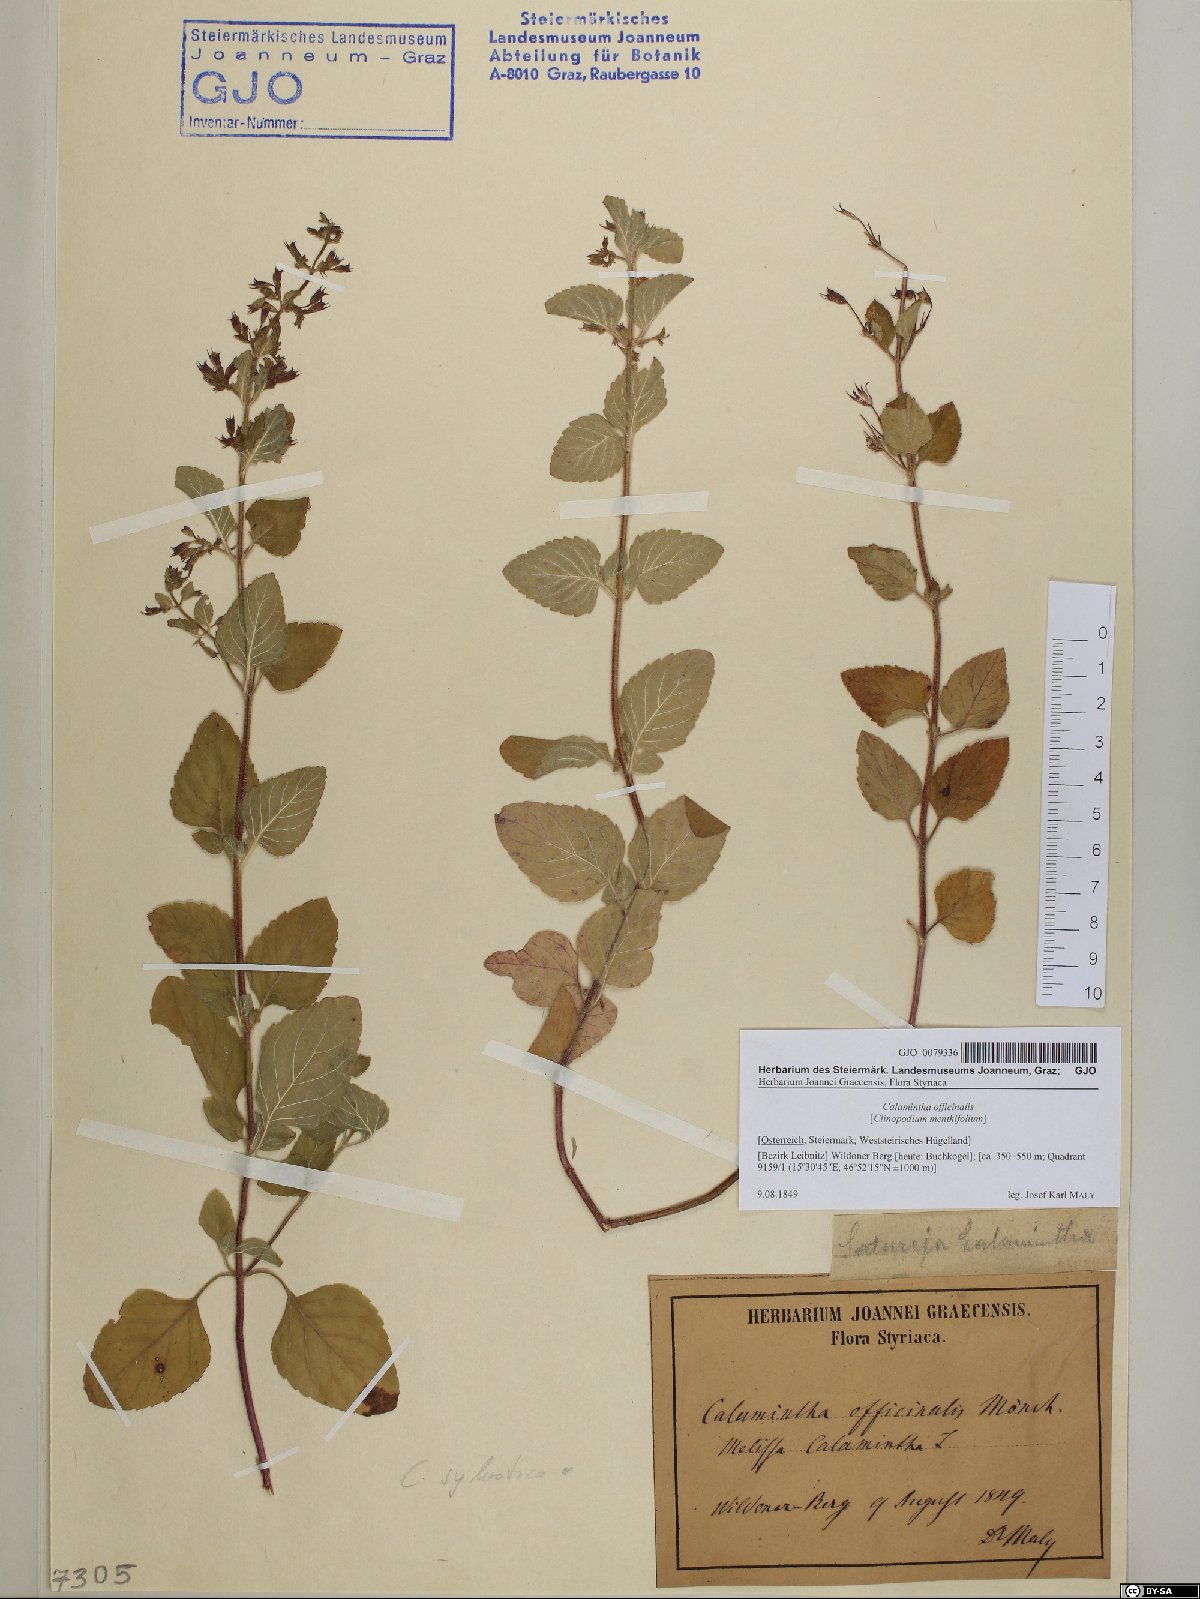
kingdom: Plantae
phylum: Tracheophyta
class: Magnoliopsida
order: Lamiales
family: Lamiaceae
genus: Clinopodium
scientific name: Clinopodium nepeta
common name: Lesser calamint
